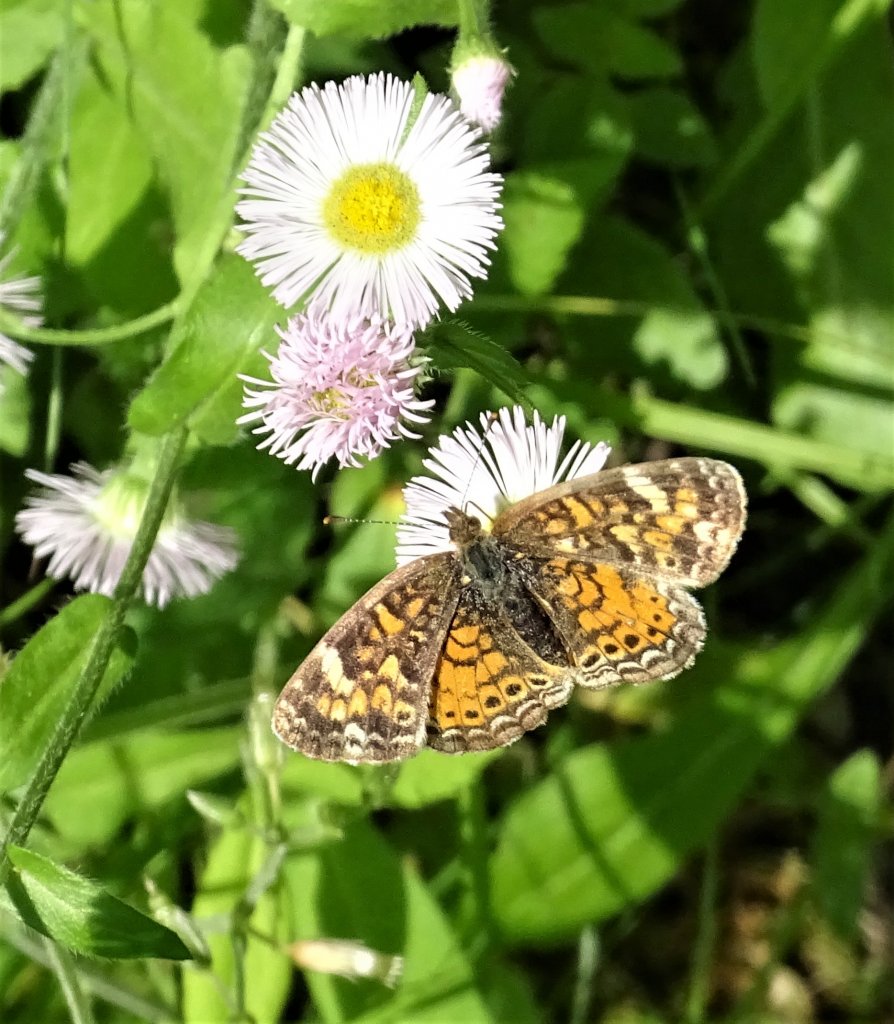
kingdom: Animalia
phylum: Arthropoda
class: Insecta
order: Lepidoptera
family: Nymphalidae
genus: Phyciodes
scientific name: Phyciodes
